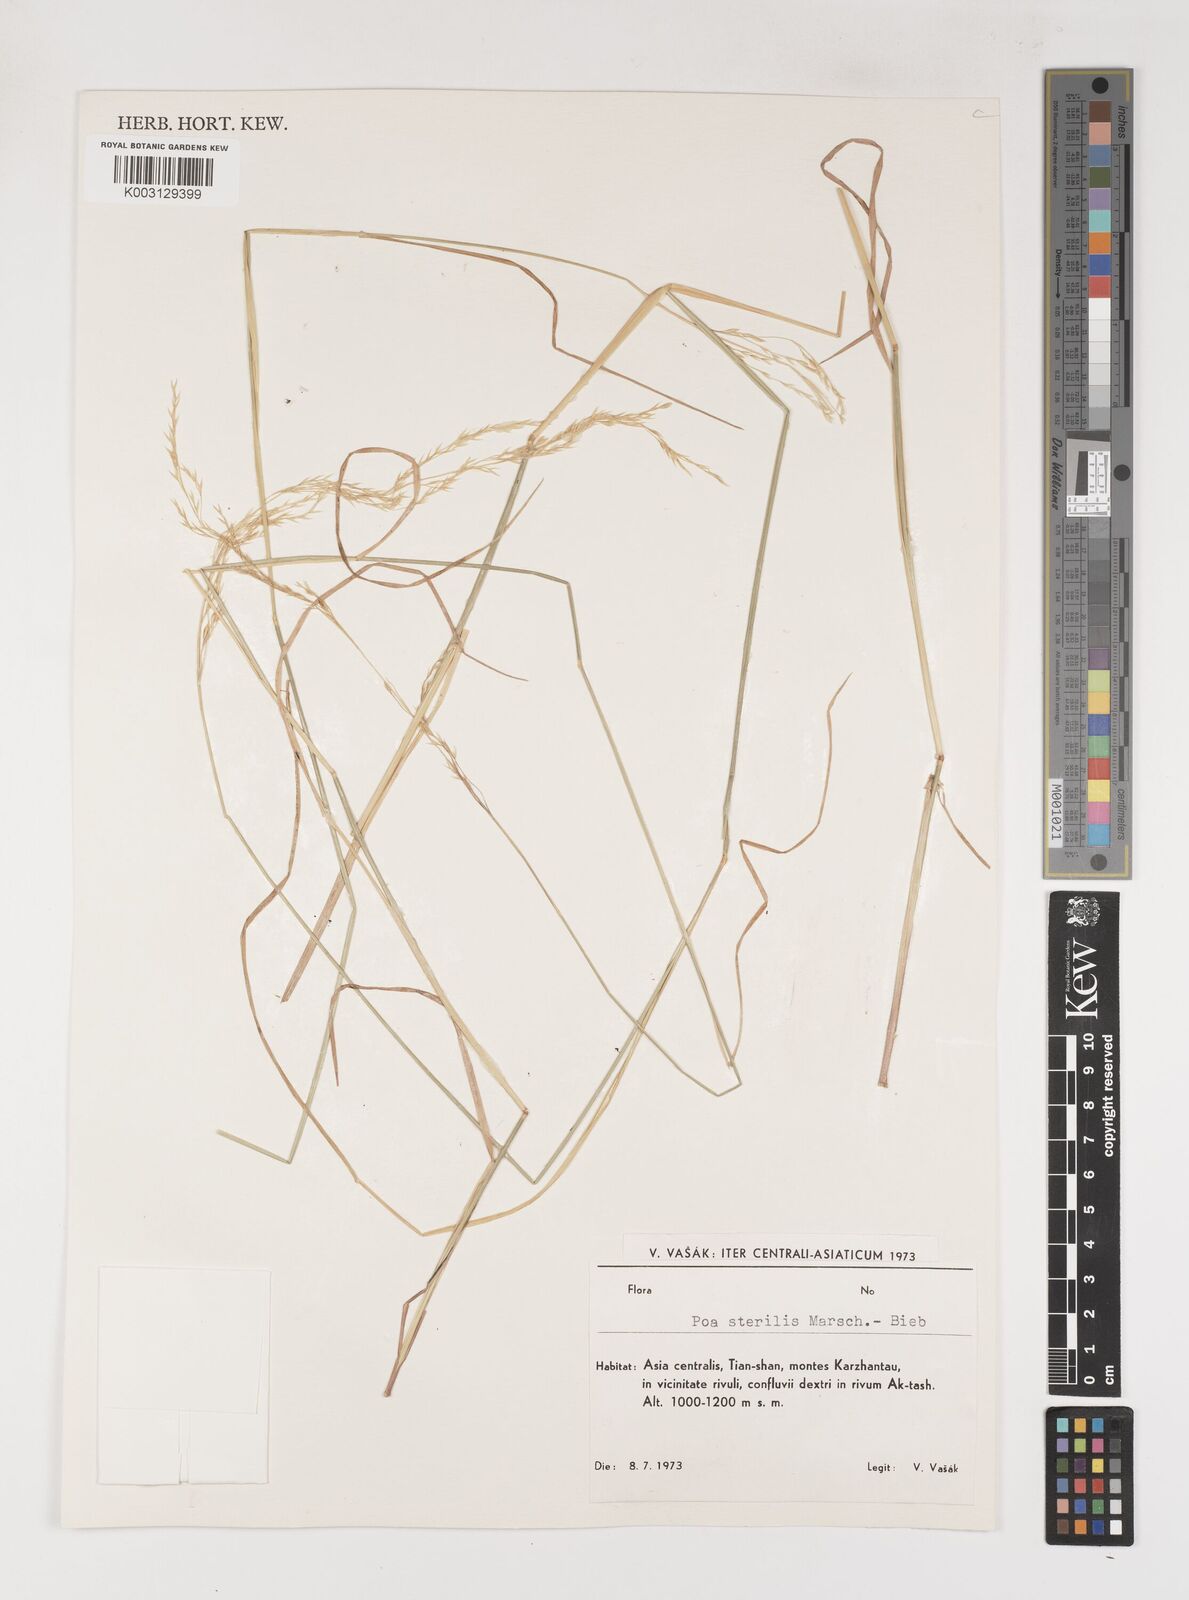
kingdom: Plantae
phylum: Tracheophyta
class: Liliopsida
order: Poales
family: Poaceae
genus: Poa
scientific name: Poa sterilis
